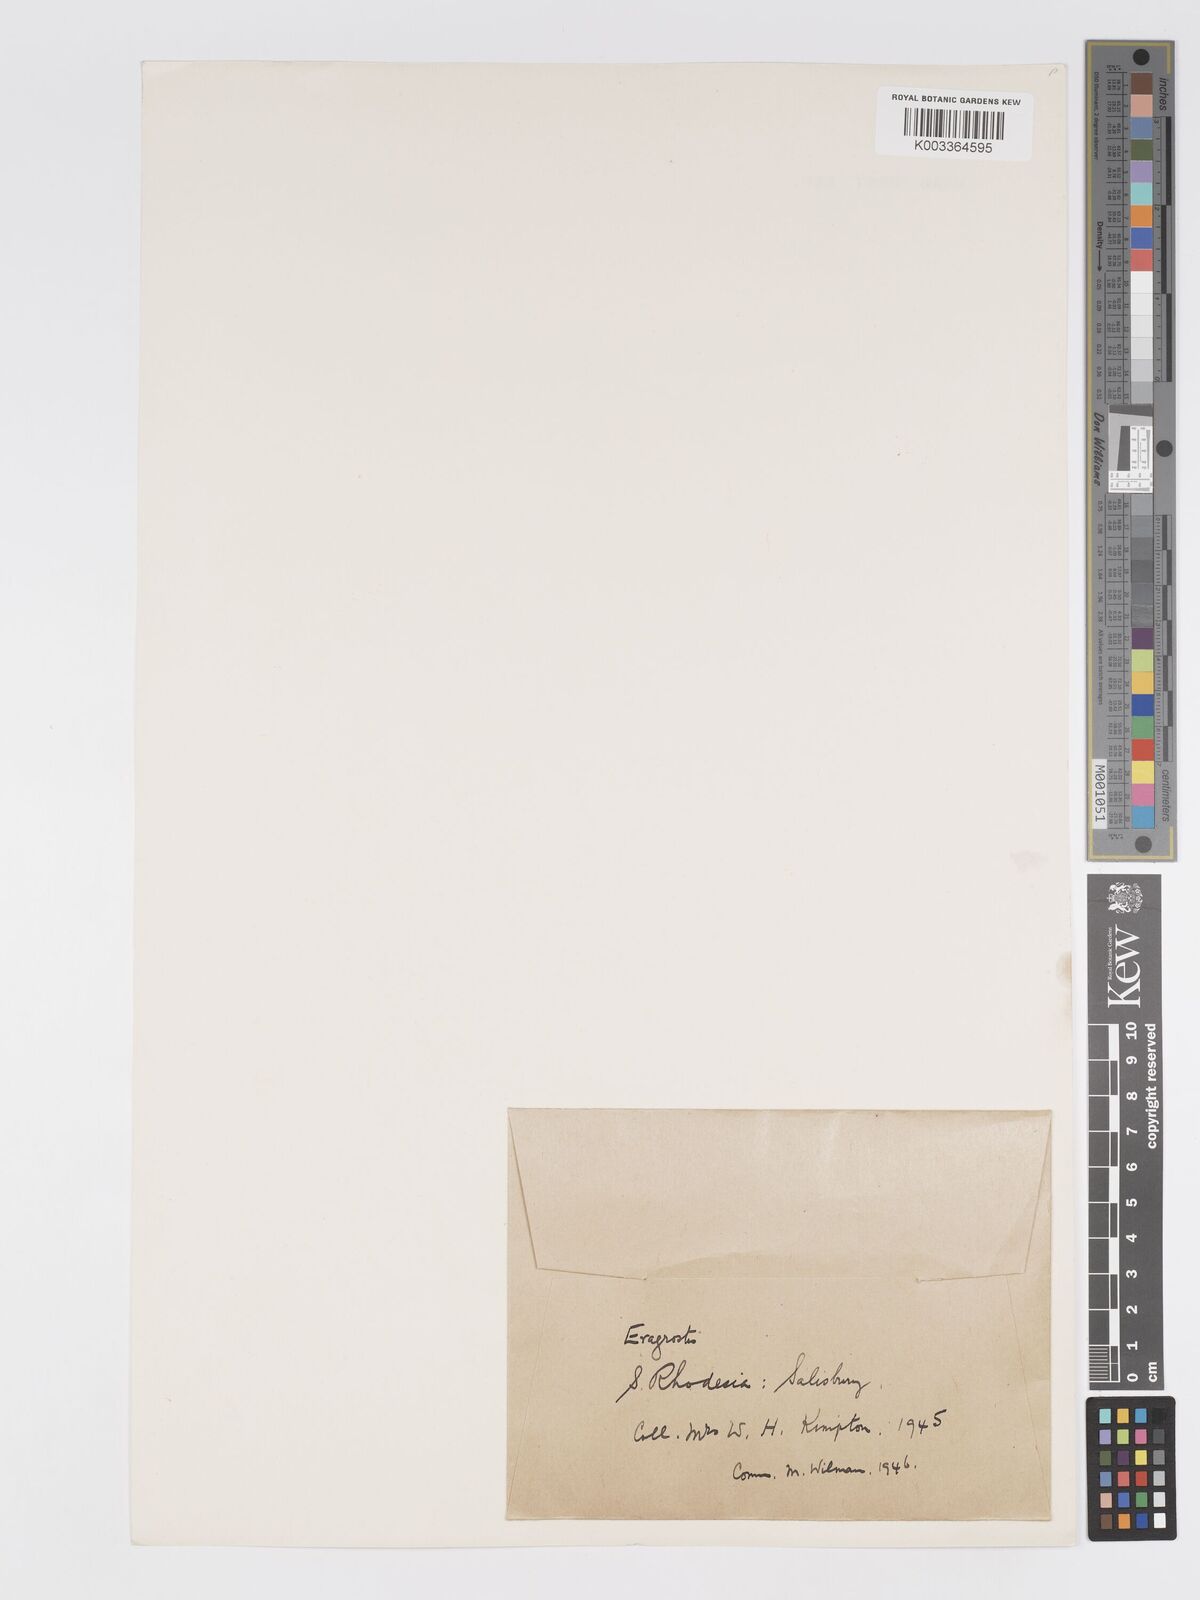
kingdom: Plantae
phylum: Tracheophyta
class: Liliopsida
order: Poales
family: Poaceae
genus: Eragrostis
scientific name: Eragrostis patentipilosa
